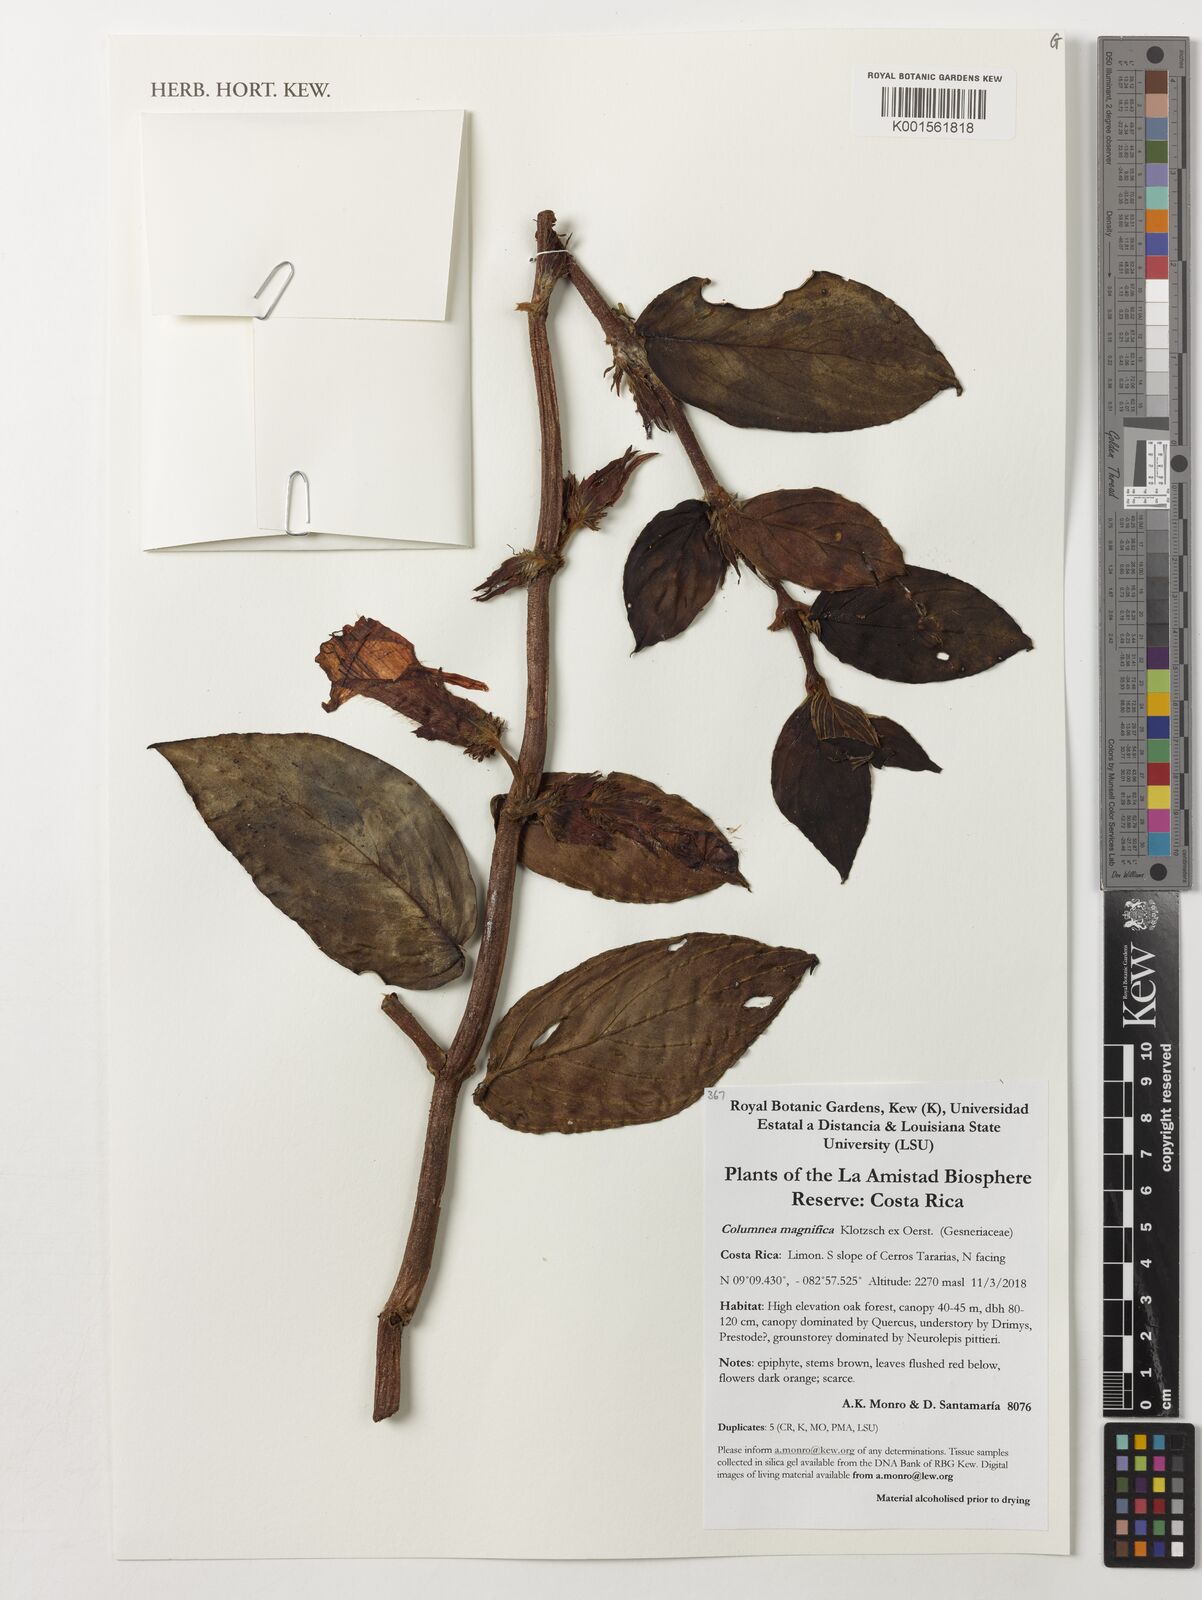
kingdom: Plantae
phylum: Tracheophyta
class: Magnoliopsida
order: Lamiales
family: Gesneriaceae
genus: Columnea
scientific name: Columnea magnifica
